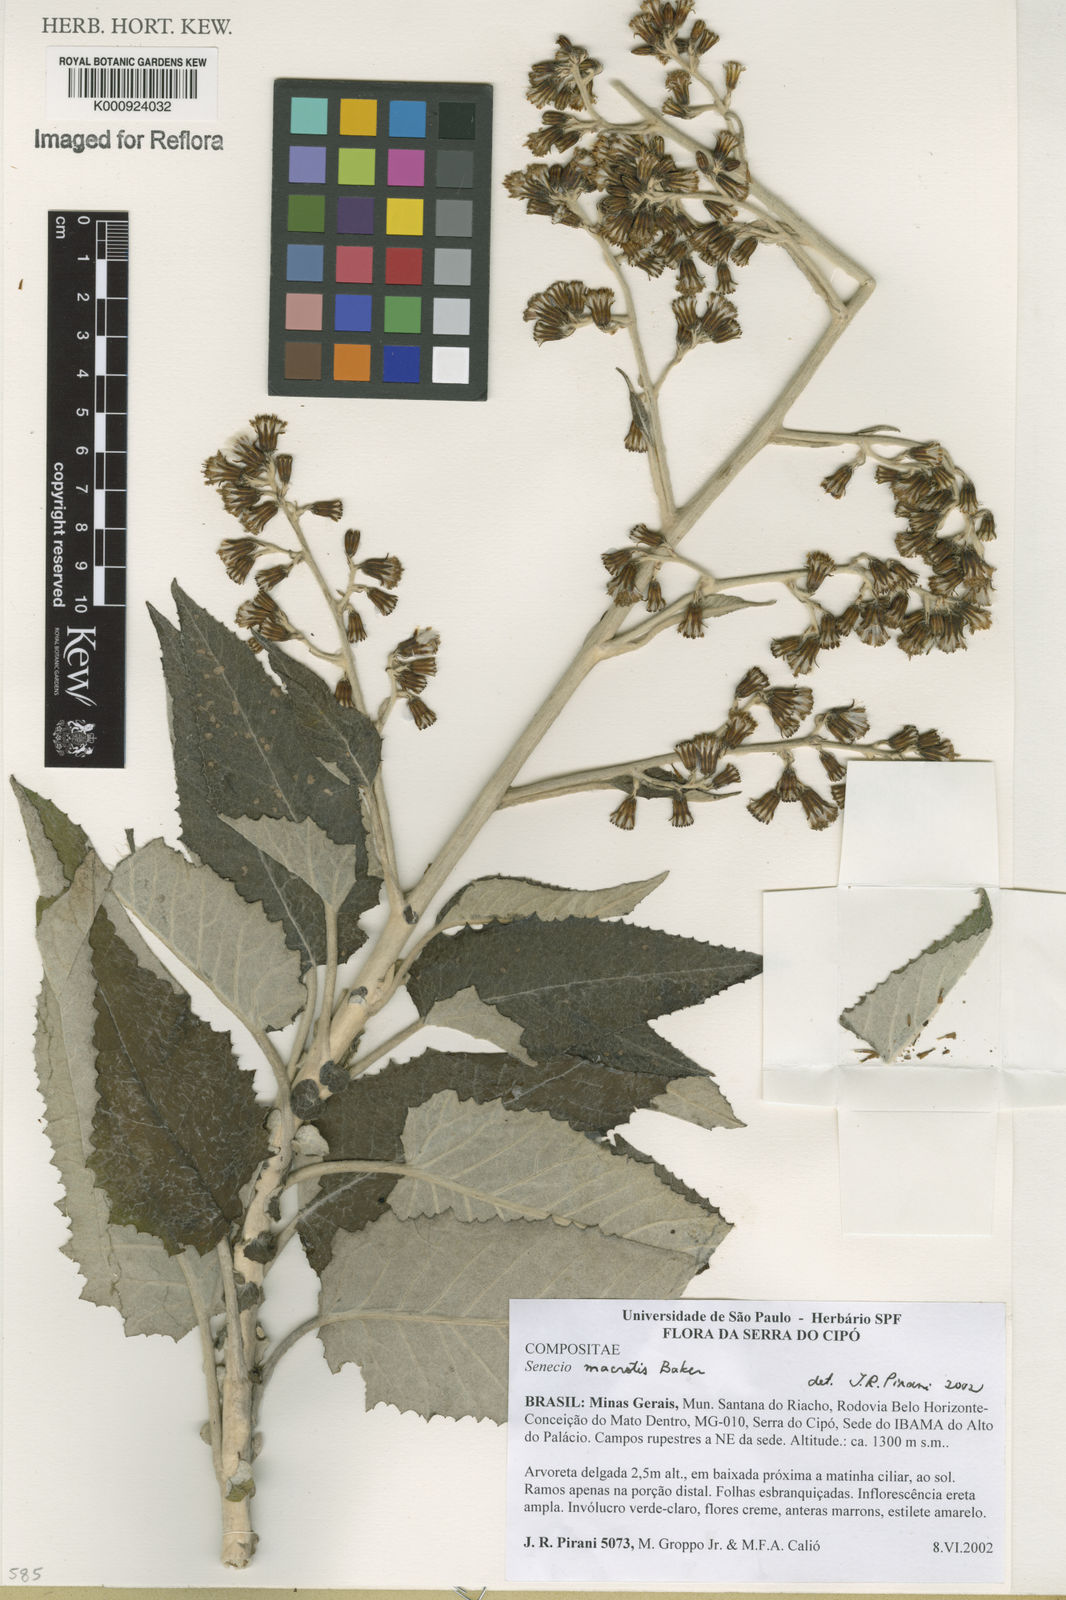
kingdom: Plantae
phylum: Tracheophyta
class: Magnoliopsida
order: Asterales
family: Asteraceae
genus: Senecio
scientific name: Senecio macrotis
